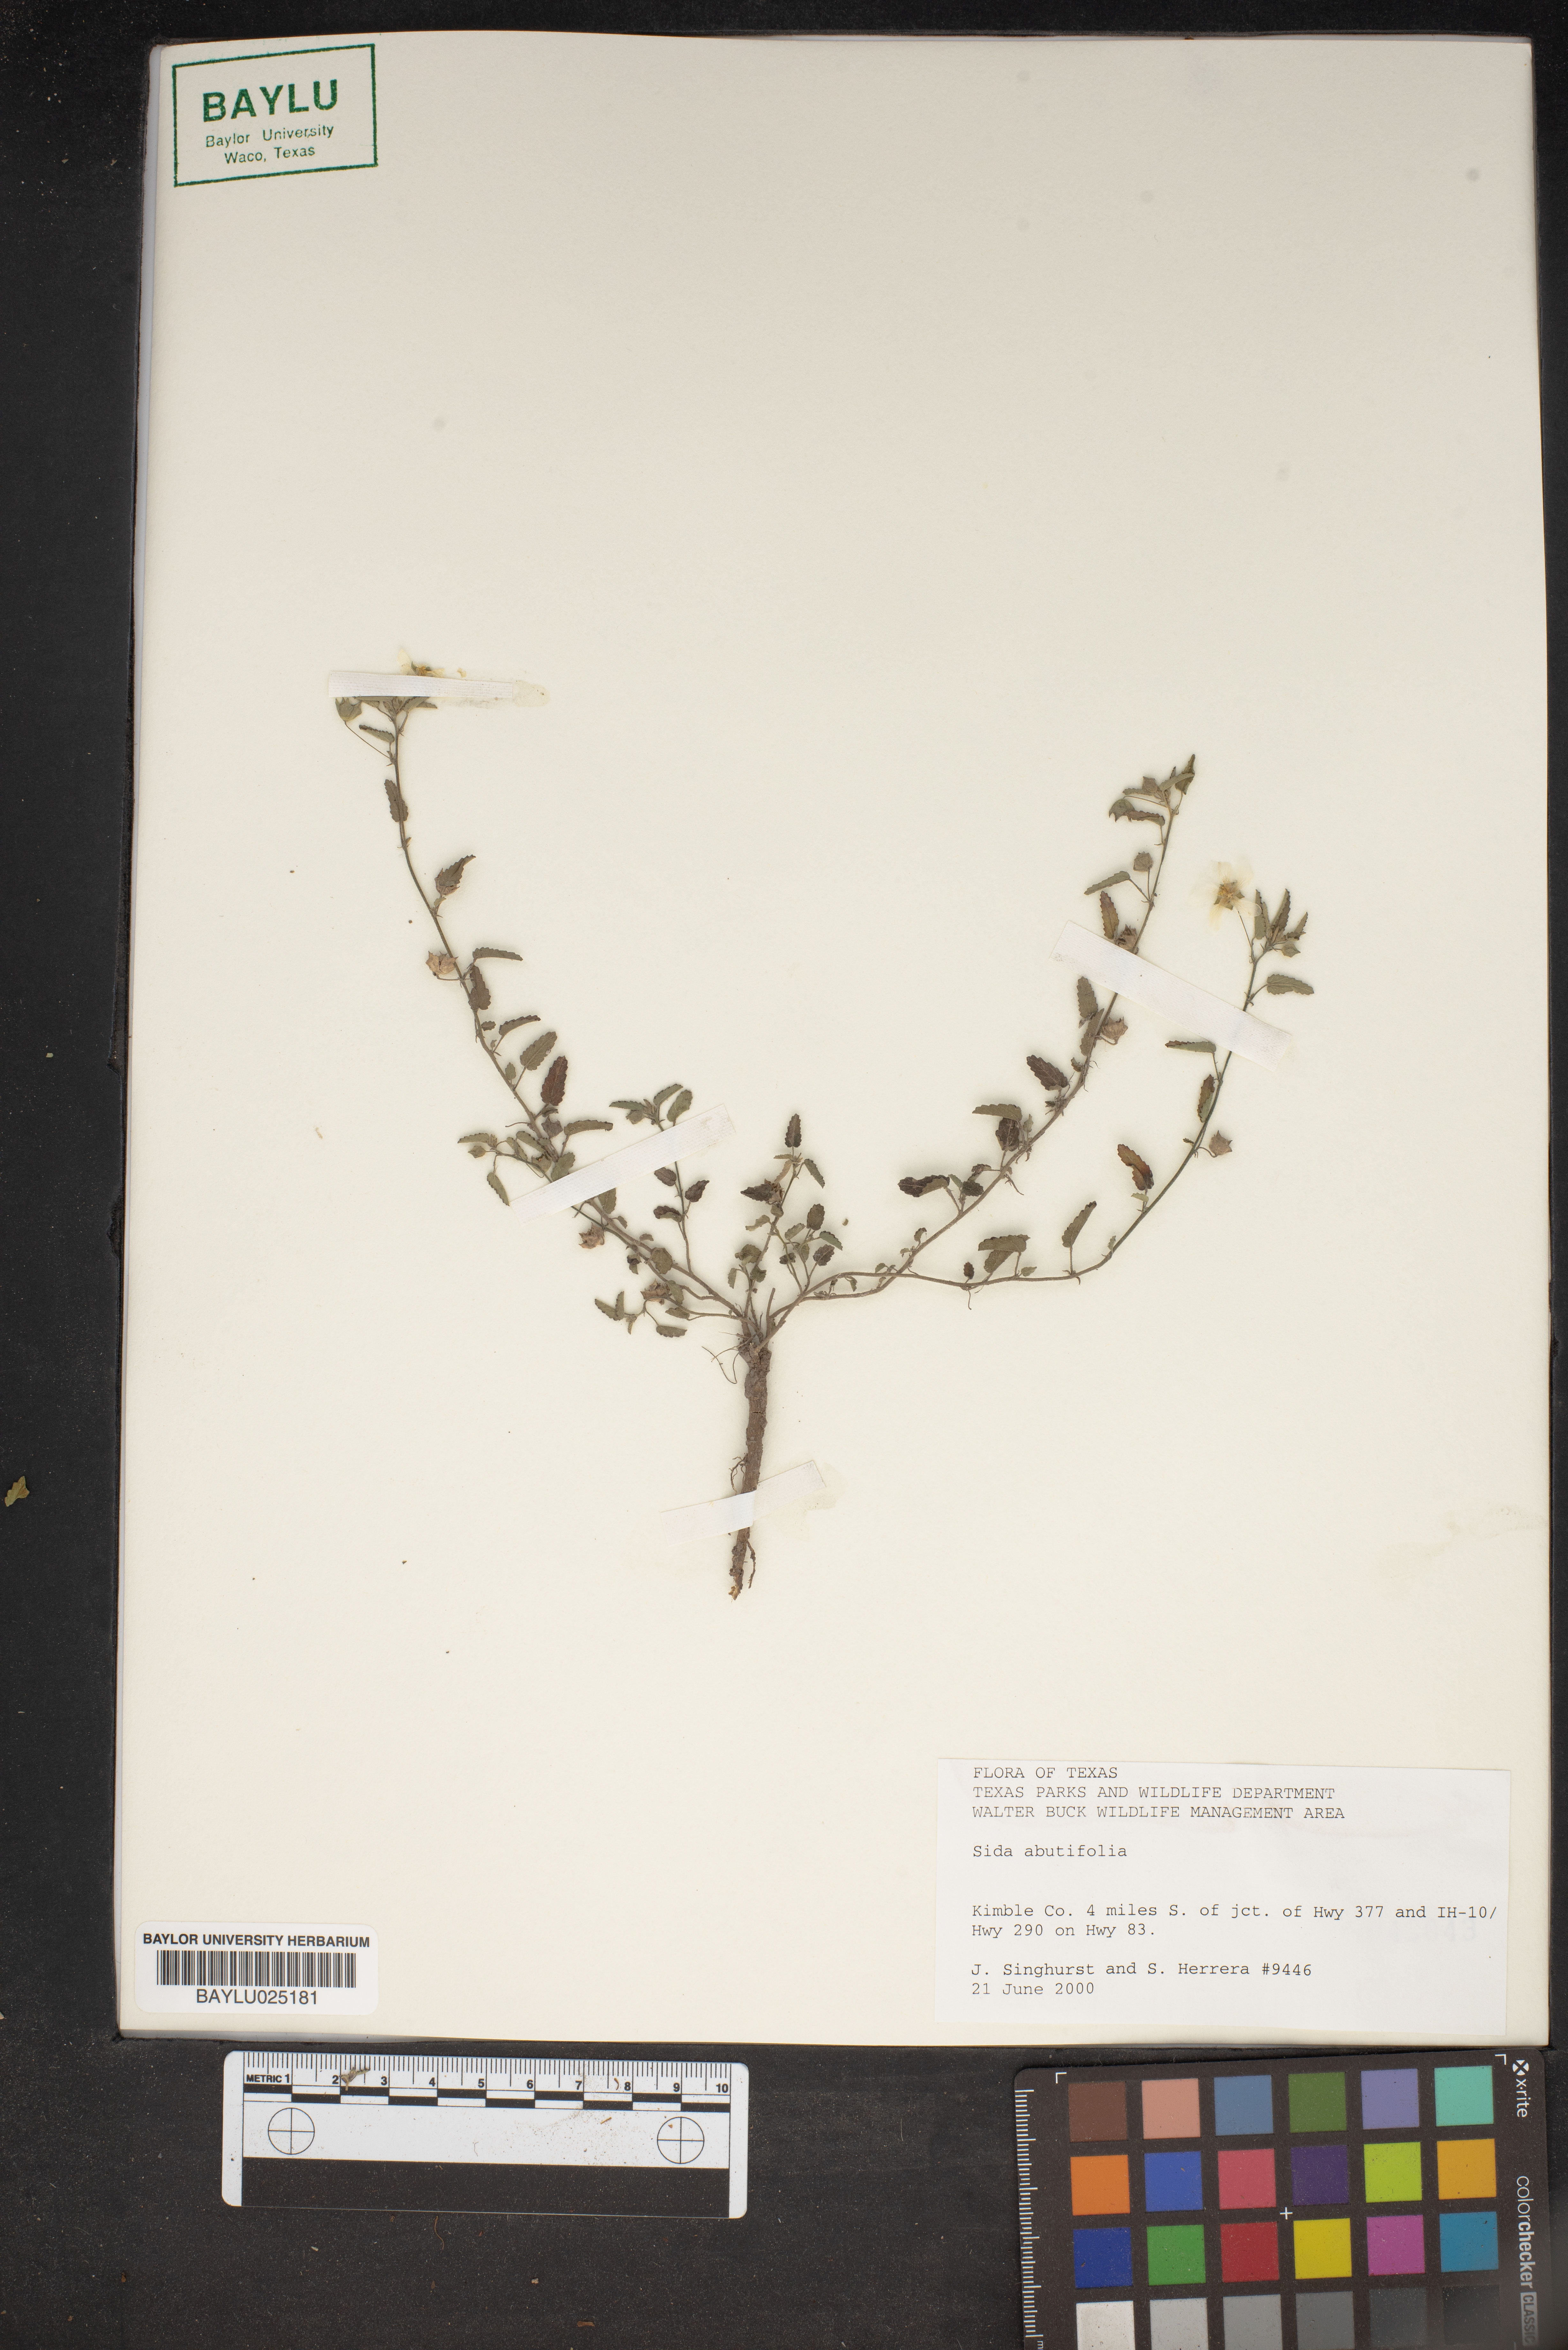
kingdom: Plantae
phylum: Tracheophyta
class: Magnoliopsida
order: Malvales
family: Malvaceae
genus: Sida
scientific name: Sida abutifolia
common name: Spreading fantails
